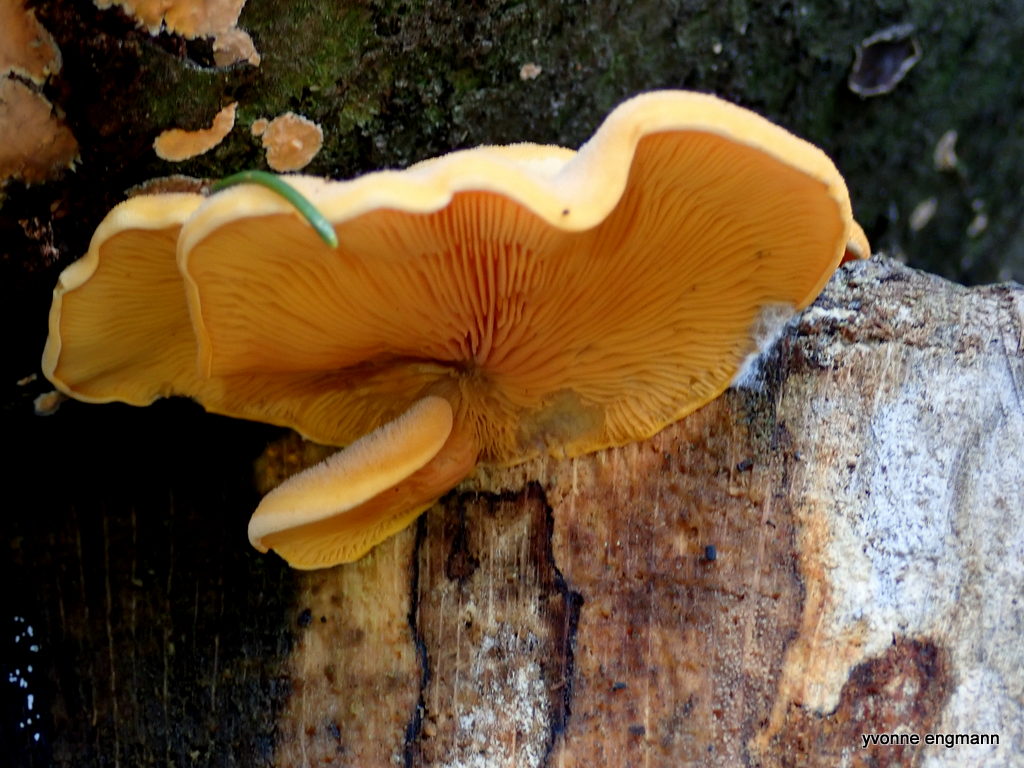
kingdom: Fungi
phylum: Basidiomycota
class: Agaricomycetes
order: Agaricales
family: Phyllotopsidaceae
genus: Phyllotopsis
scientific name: Phyllotopsis nidulans
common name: okkerblad
